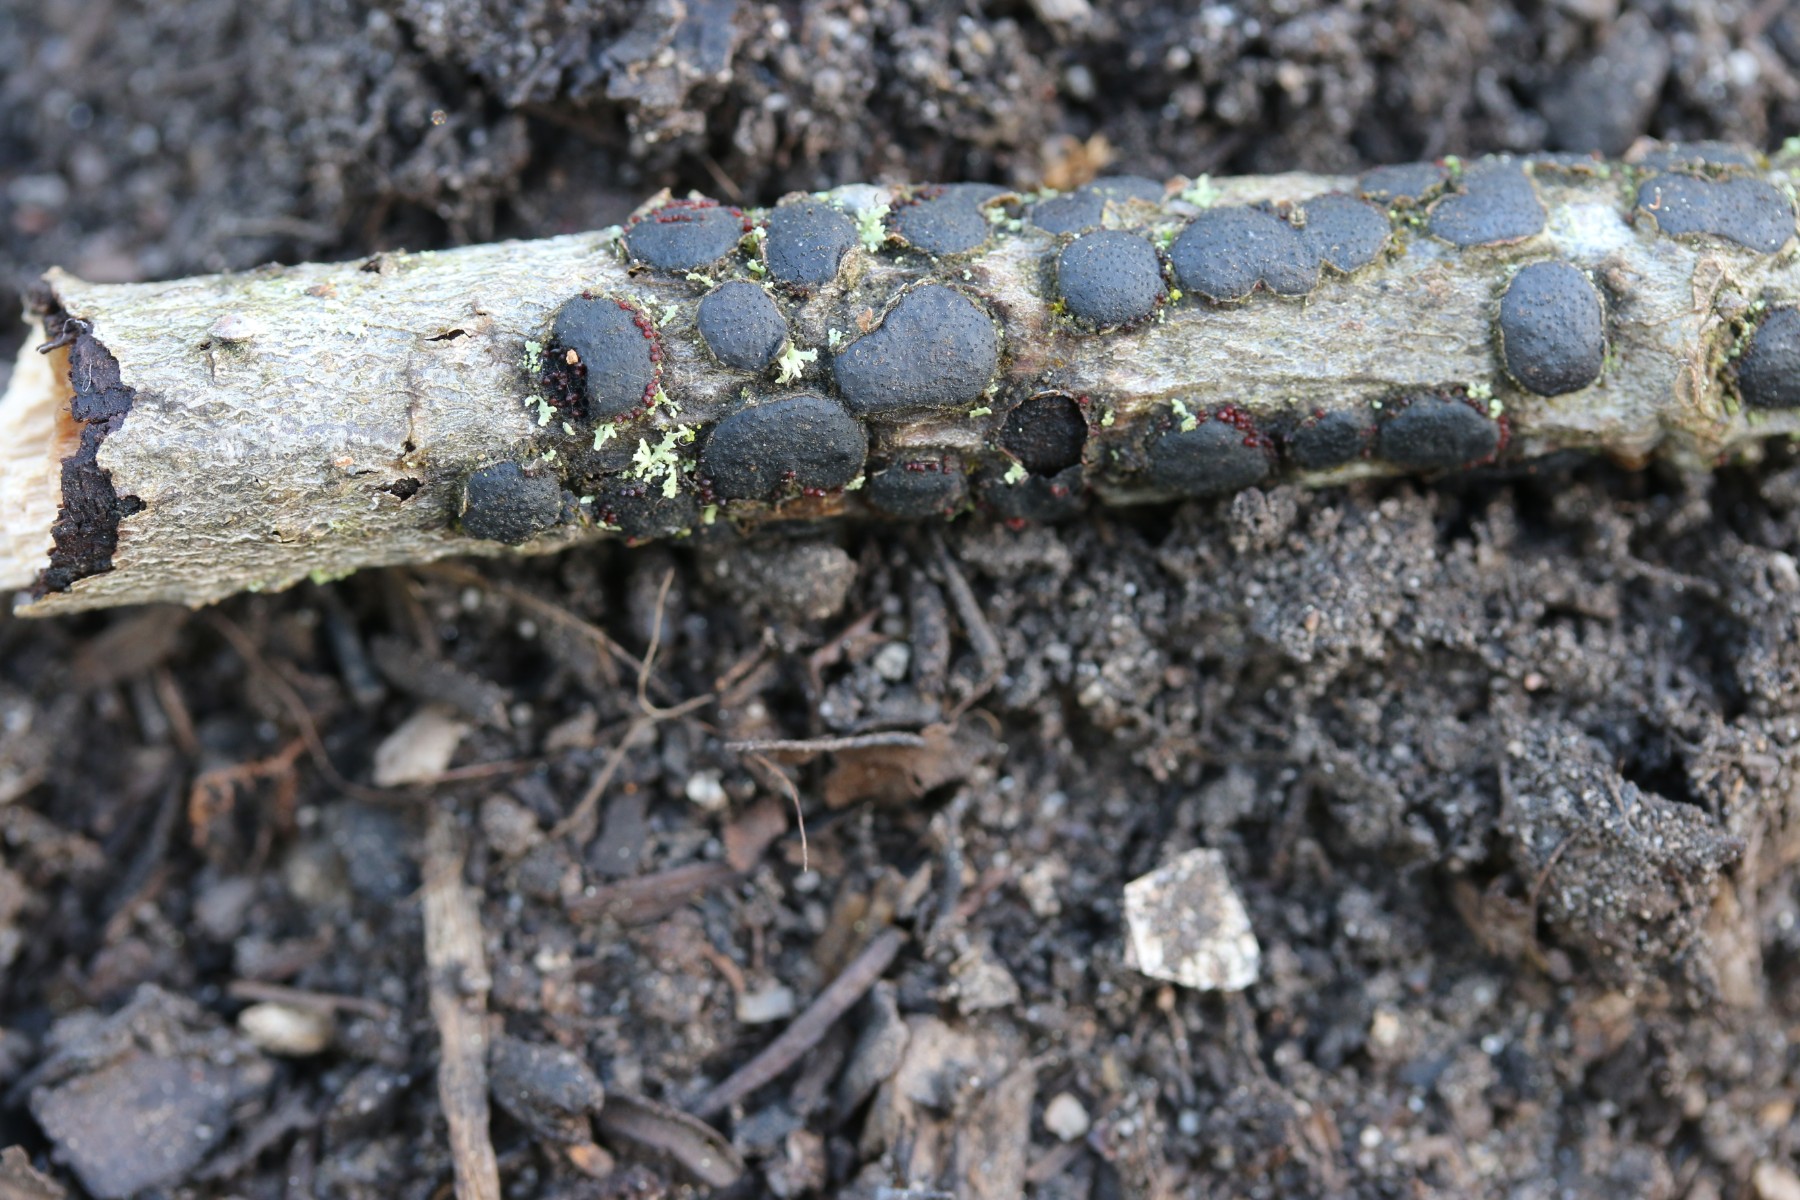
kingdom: Fungi
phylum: Ascomycota
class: Sordariomycetes
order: Xylariales
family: Diatrypaceae
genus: Diatrype
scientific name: Diatrype bullata
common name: pile-kulskorpe
